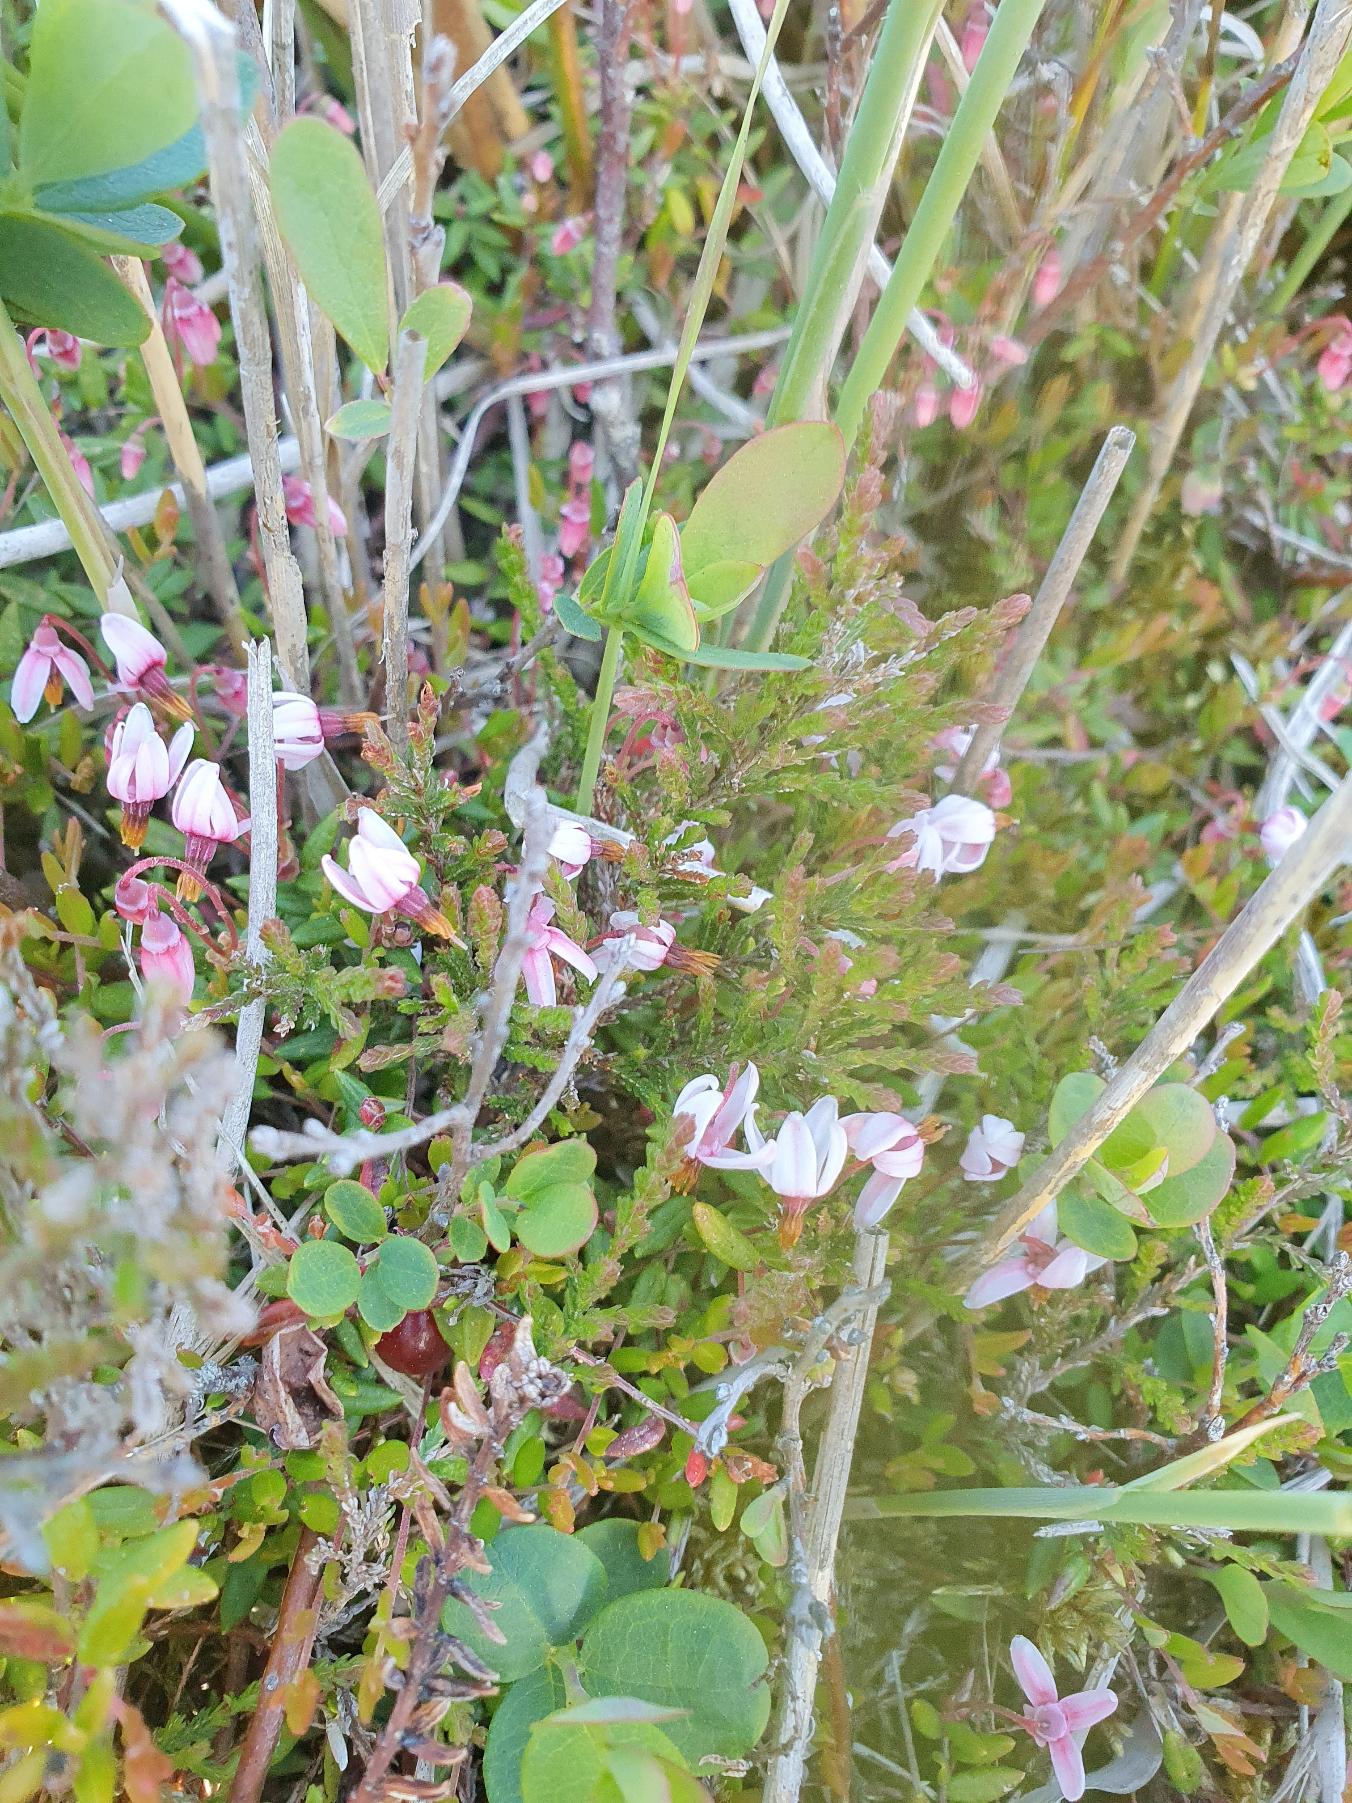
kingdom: Plantae
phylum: Tracheophyta
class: Magnoliopsida
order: Ericales
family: Ericaceae
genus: Vaccinium
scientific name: Vaccinium oxycoccos
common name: Tranebær
